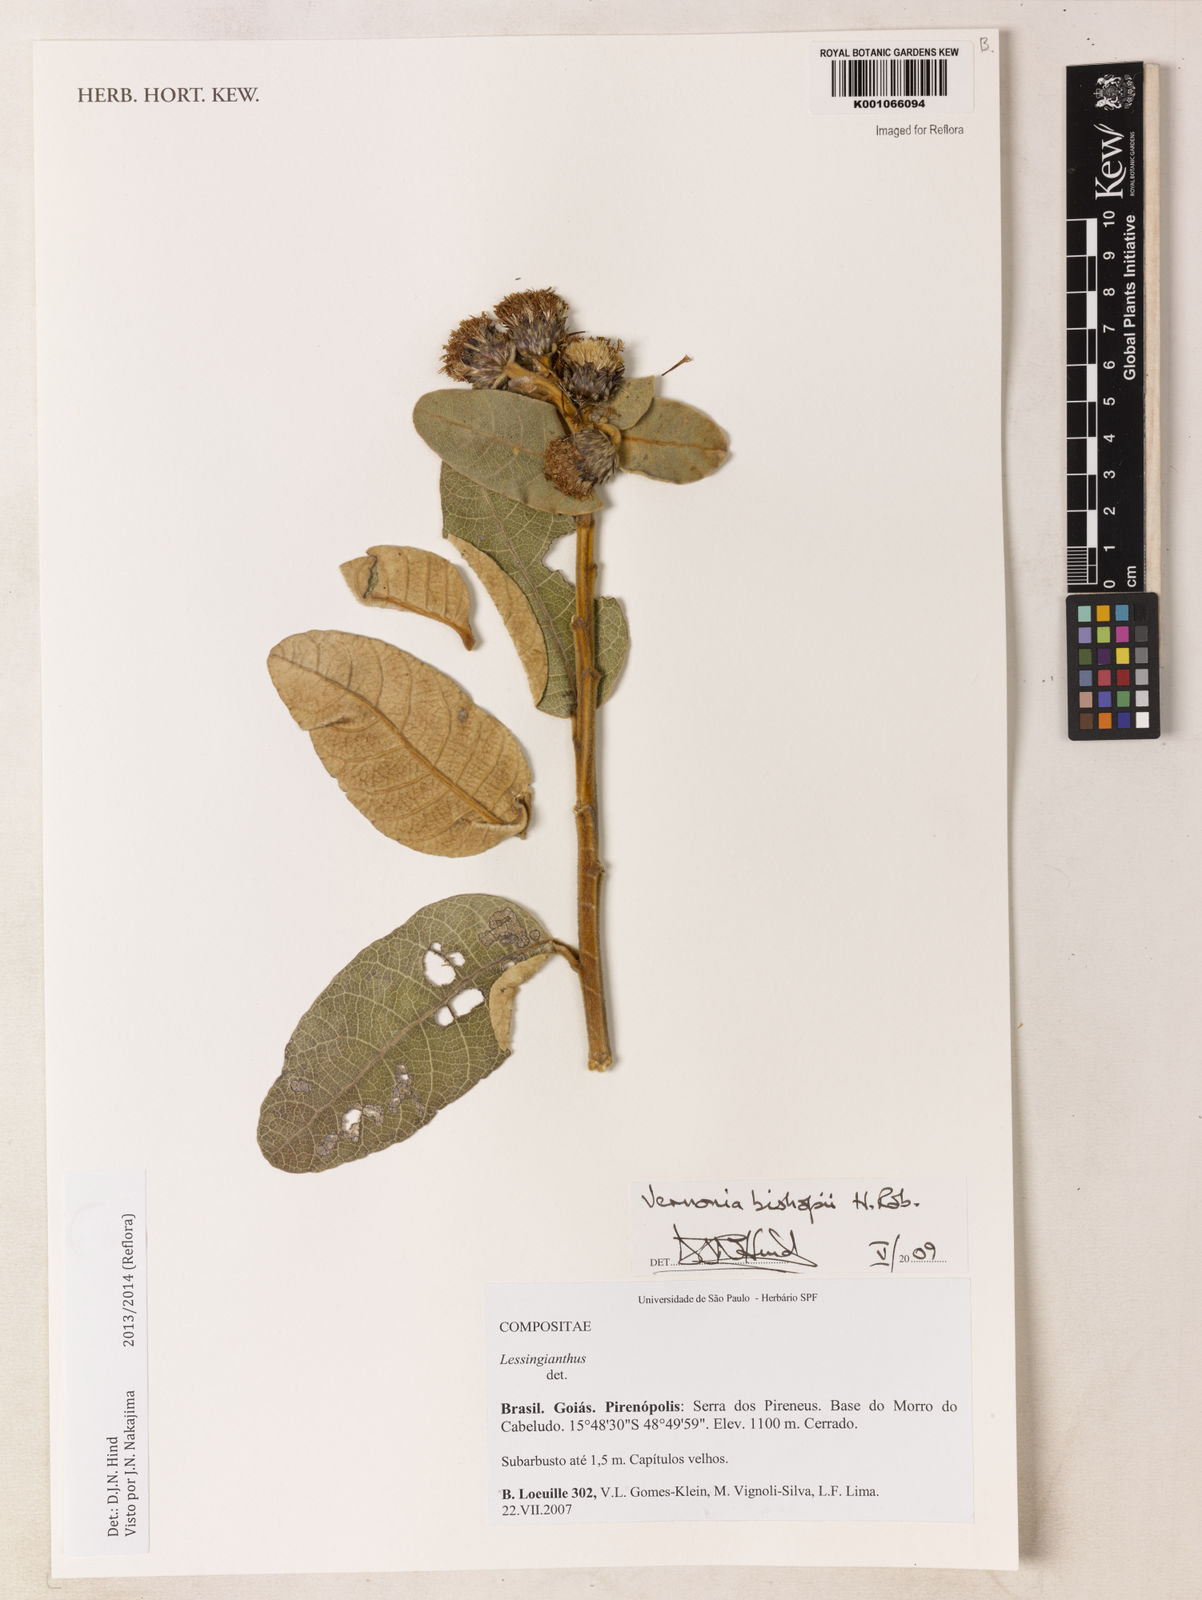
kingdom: Plantae
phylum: Tracheophyta
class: Magnoliopsida
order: Asterales
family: Asteraceae
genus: Lessingianthus
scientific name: Lessingianthus bishopii
